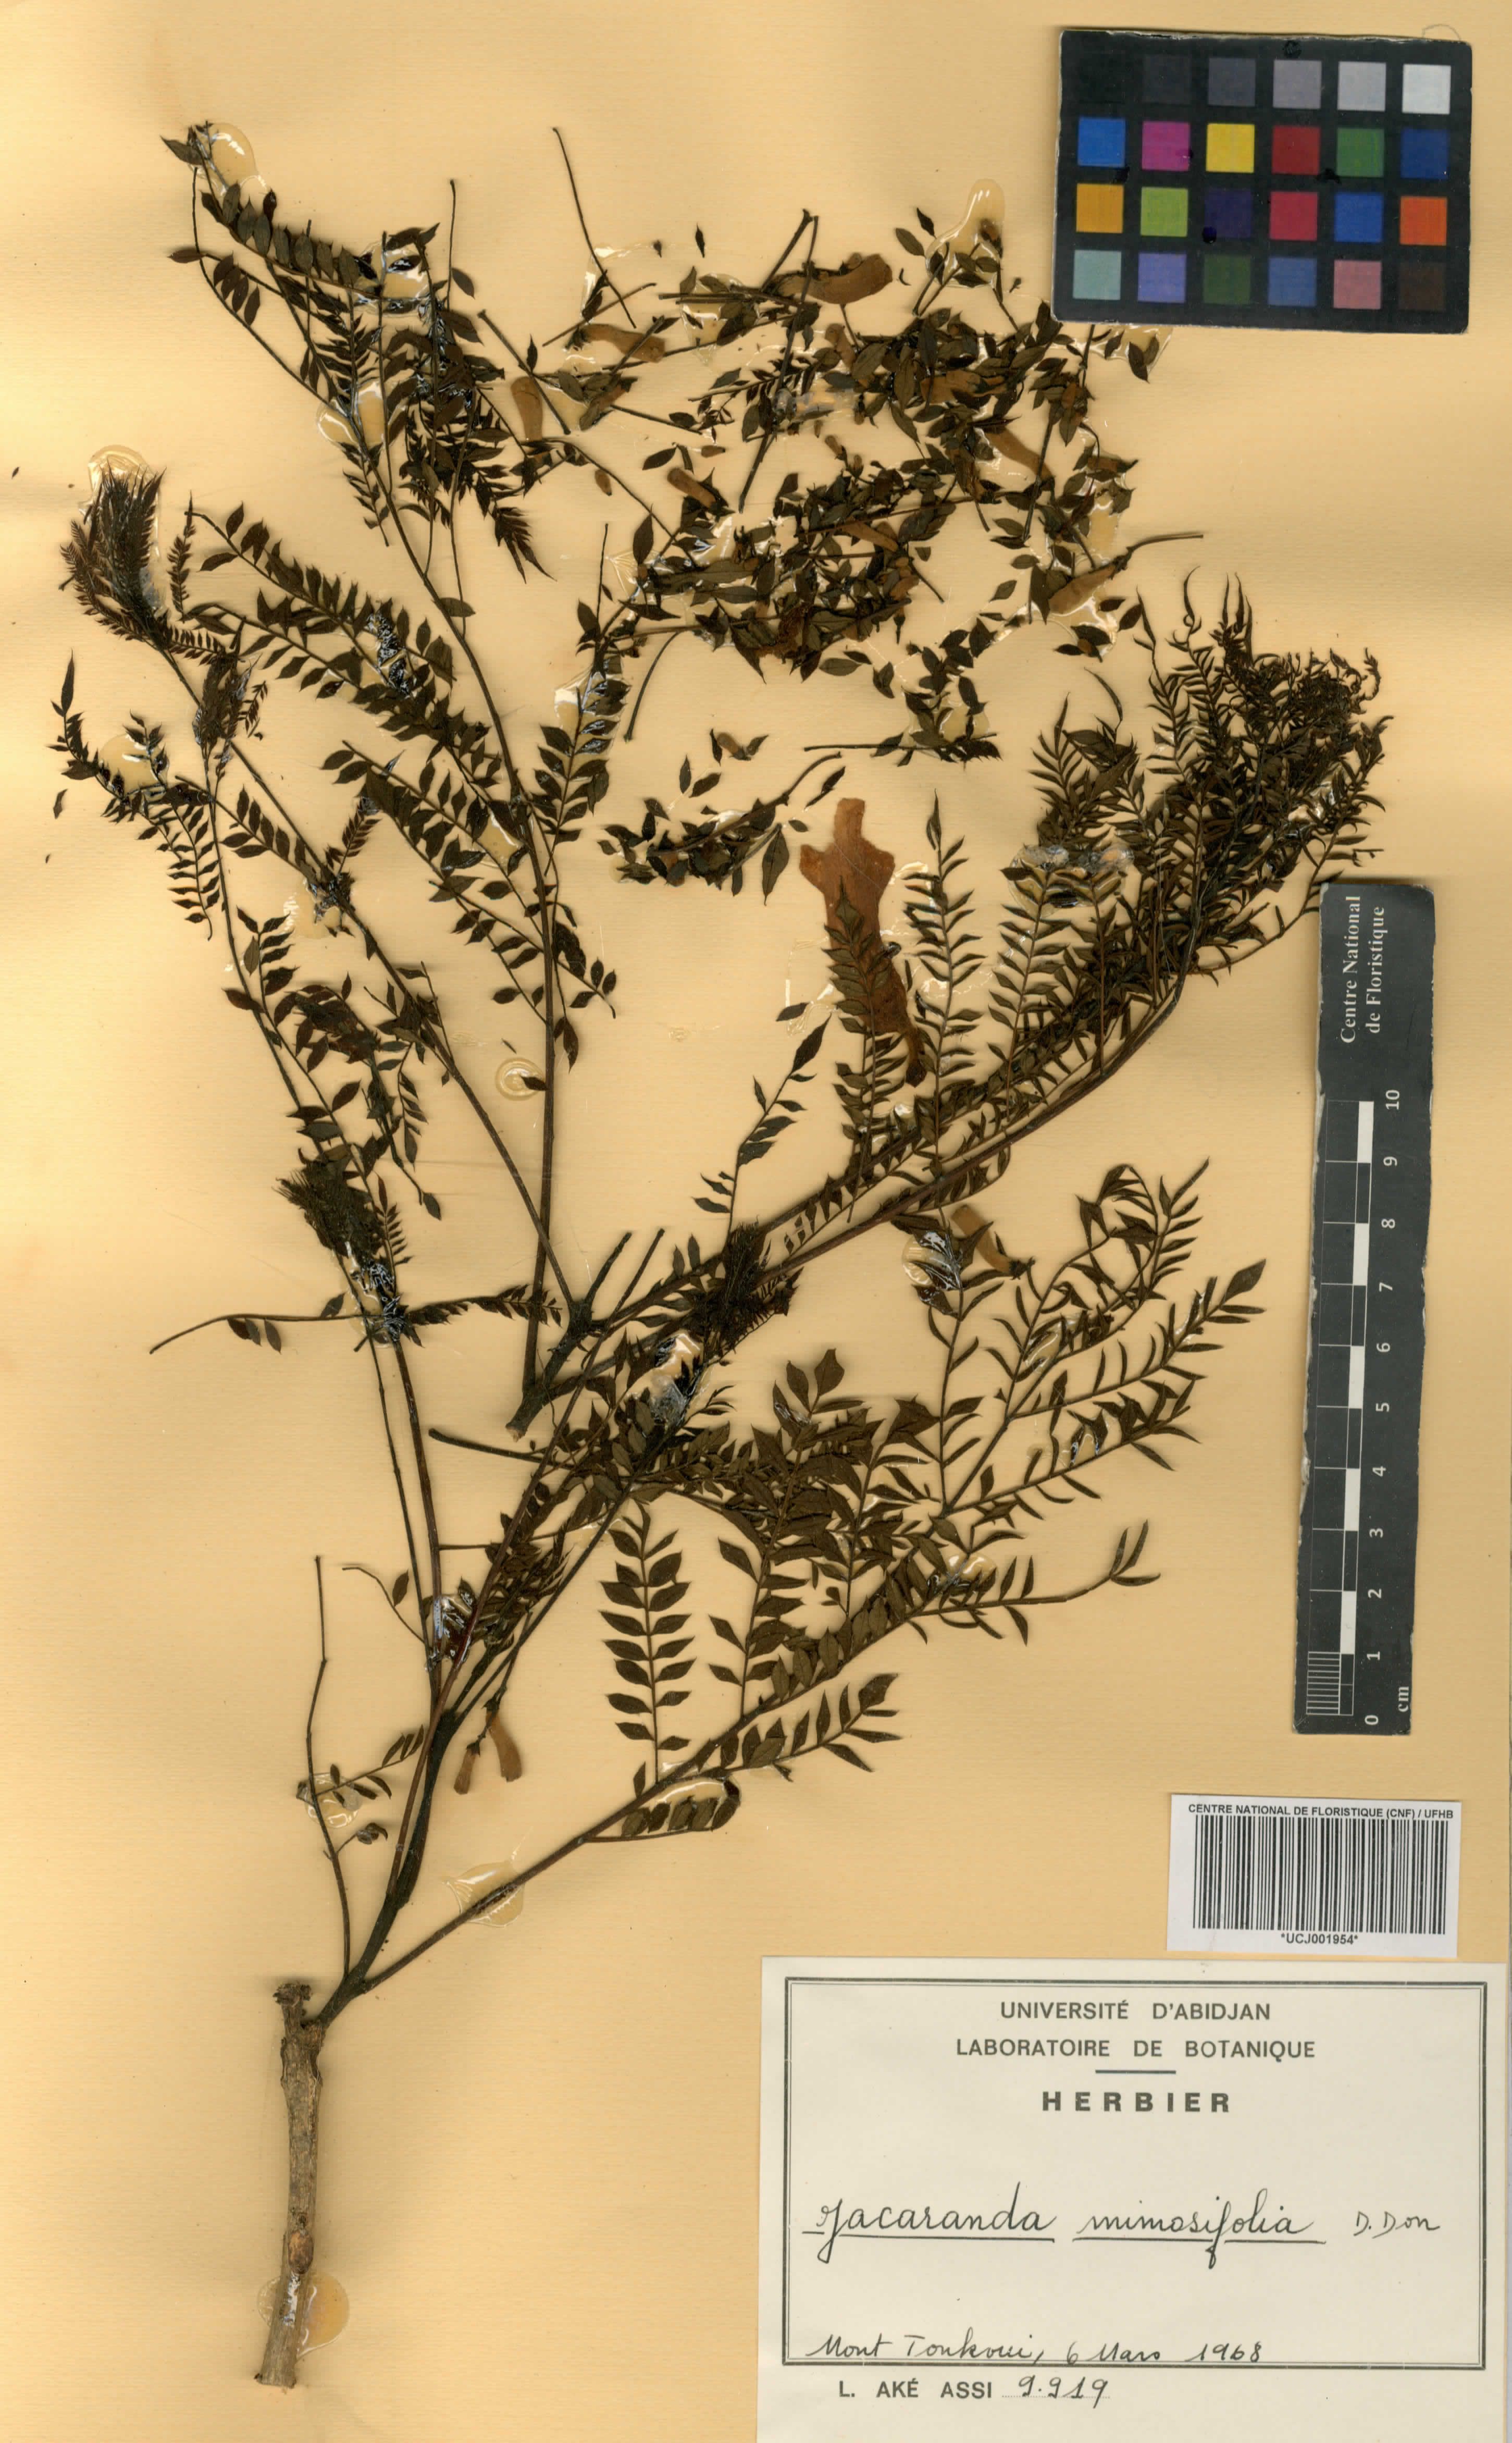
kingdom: Plantae
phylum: Tracheophyta
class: Magnoliopsida
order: Lamiales
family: Bignoniaceae
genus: Jacaranda
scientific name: Jacaranda mimosifolia
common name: Black poui
